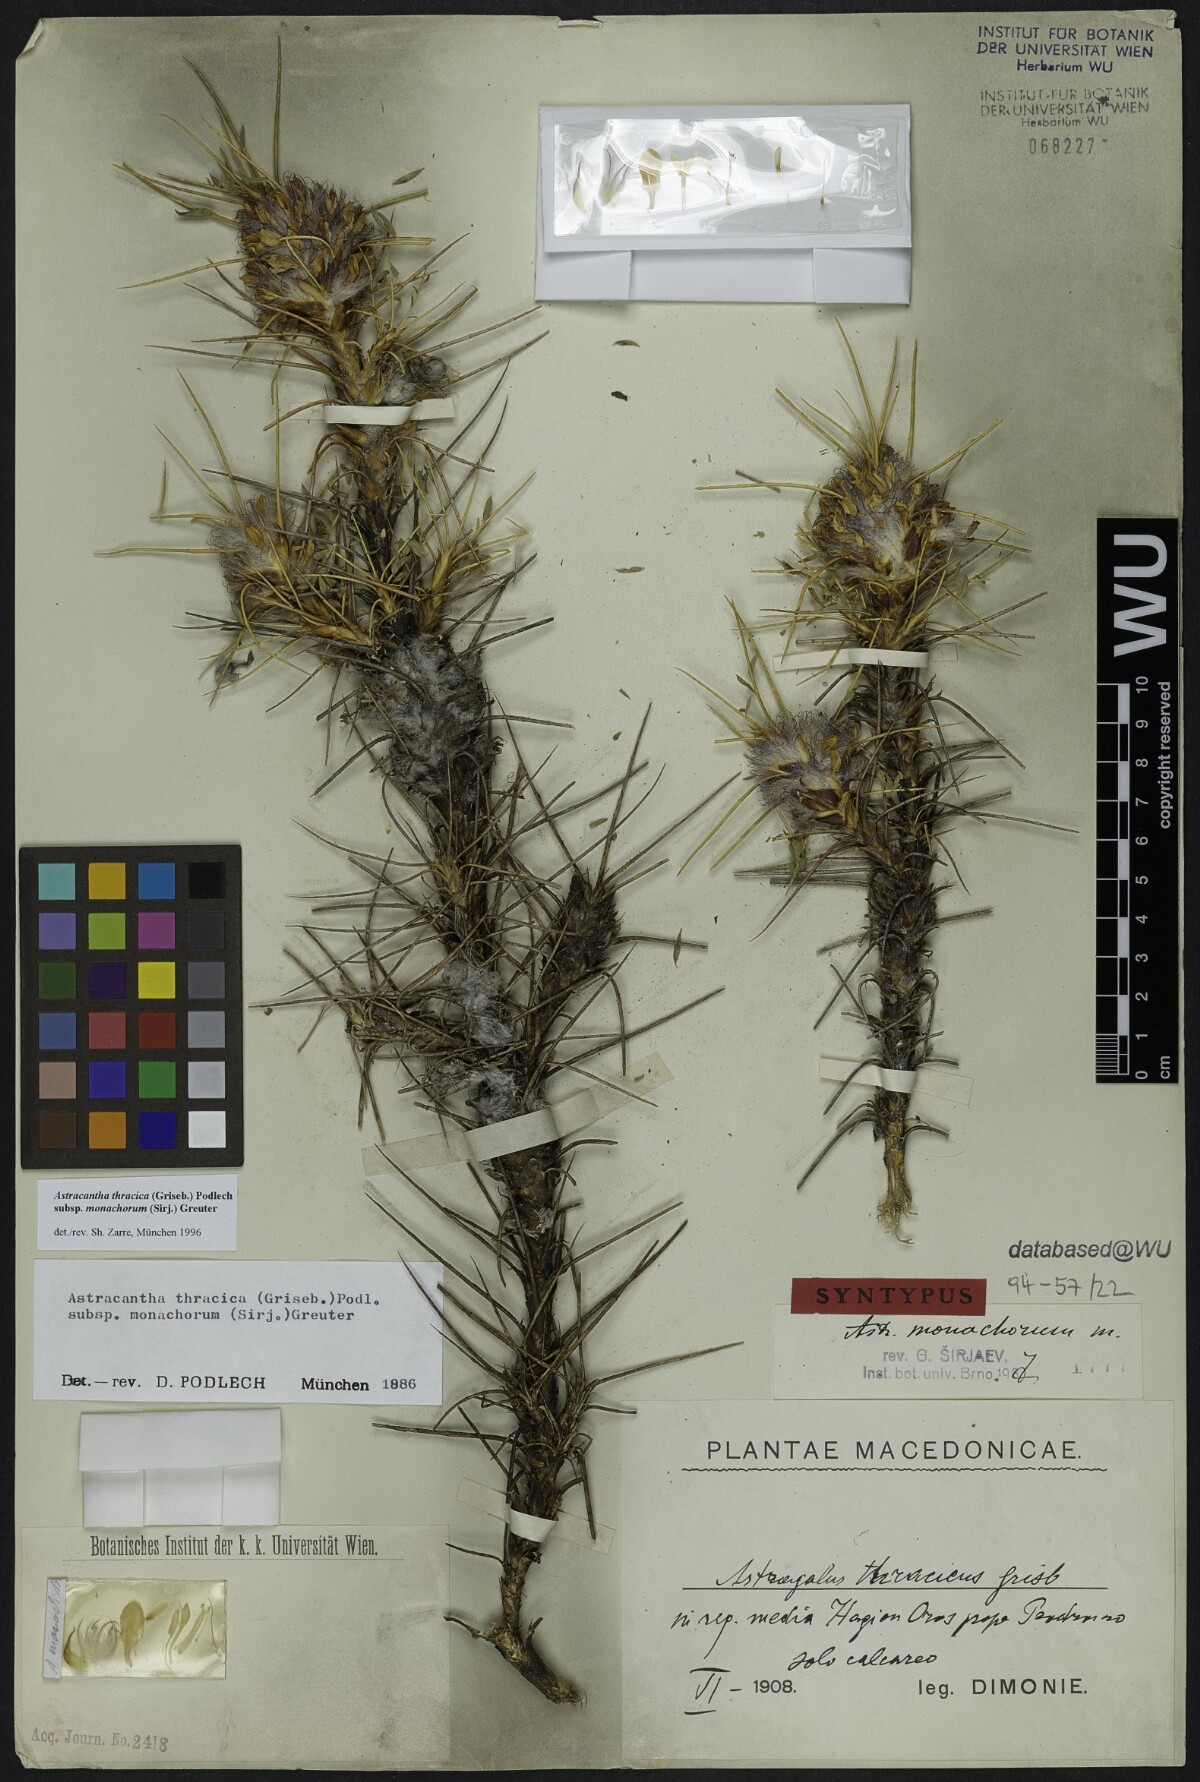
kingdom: Plantae
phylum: Tracheophyta
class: Magnoliopsida
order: Fabales
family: Fabaceae
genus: Astragalus
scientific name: Astragalus thracicus
